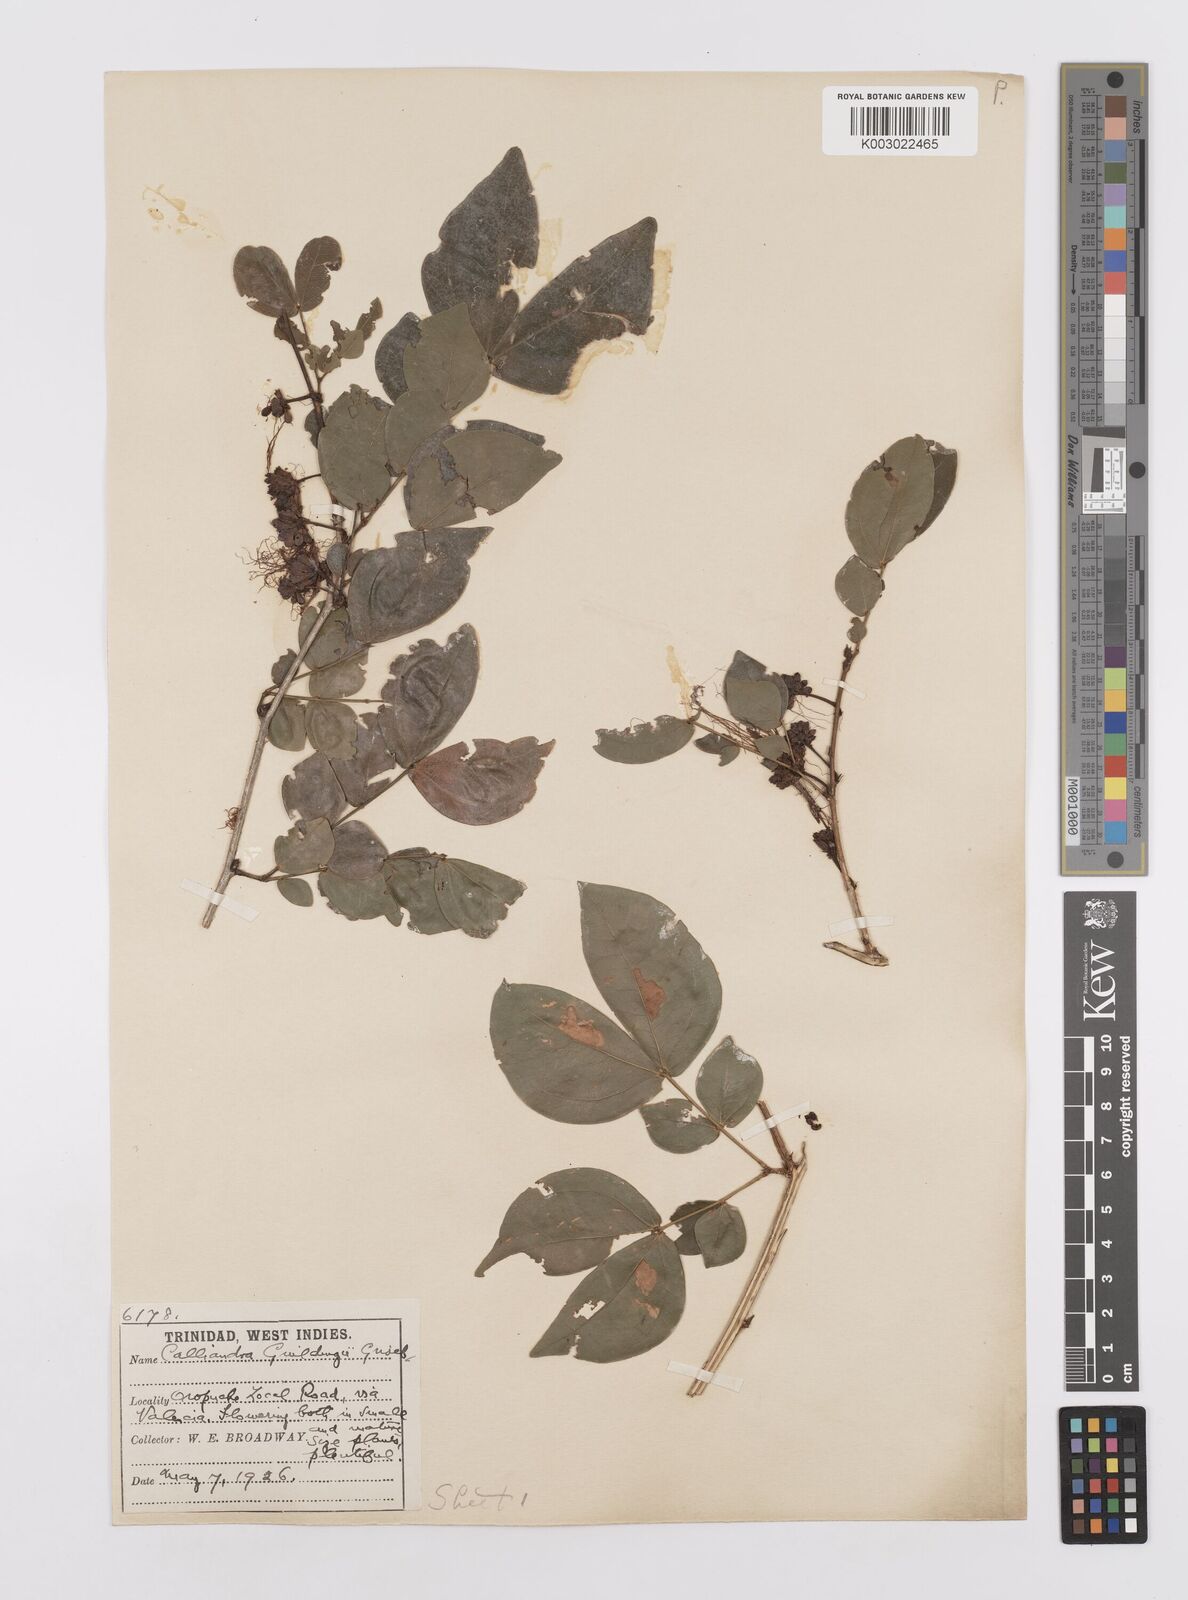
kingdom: Plantae
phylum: Tracheophyta
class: Magnoliopsida
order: Fabales
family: Fabaceae
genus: Calliandra
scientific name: Calliandra guildingii
